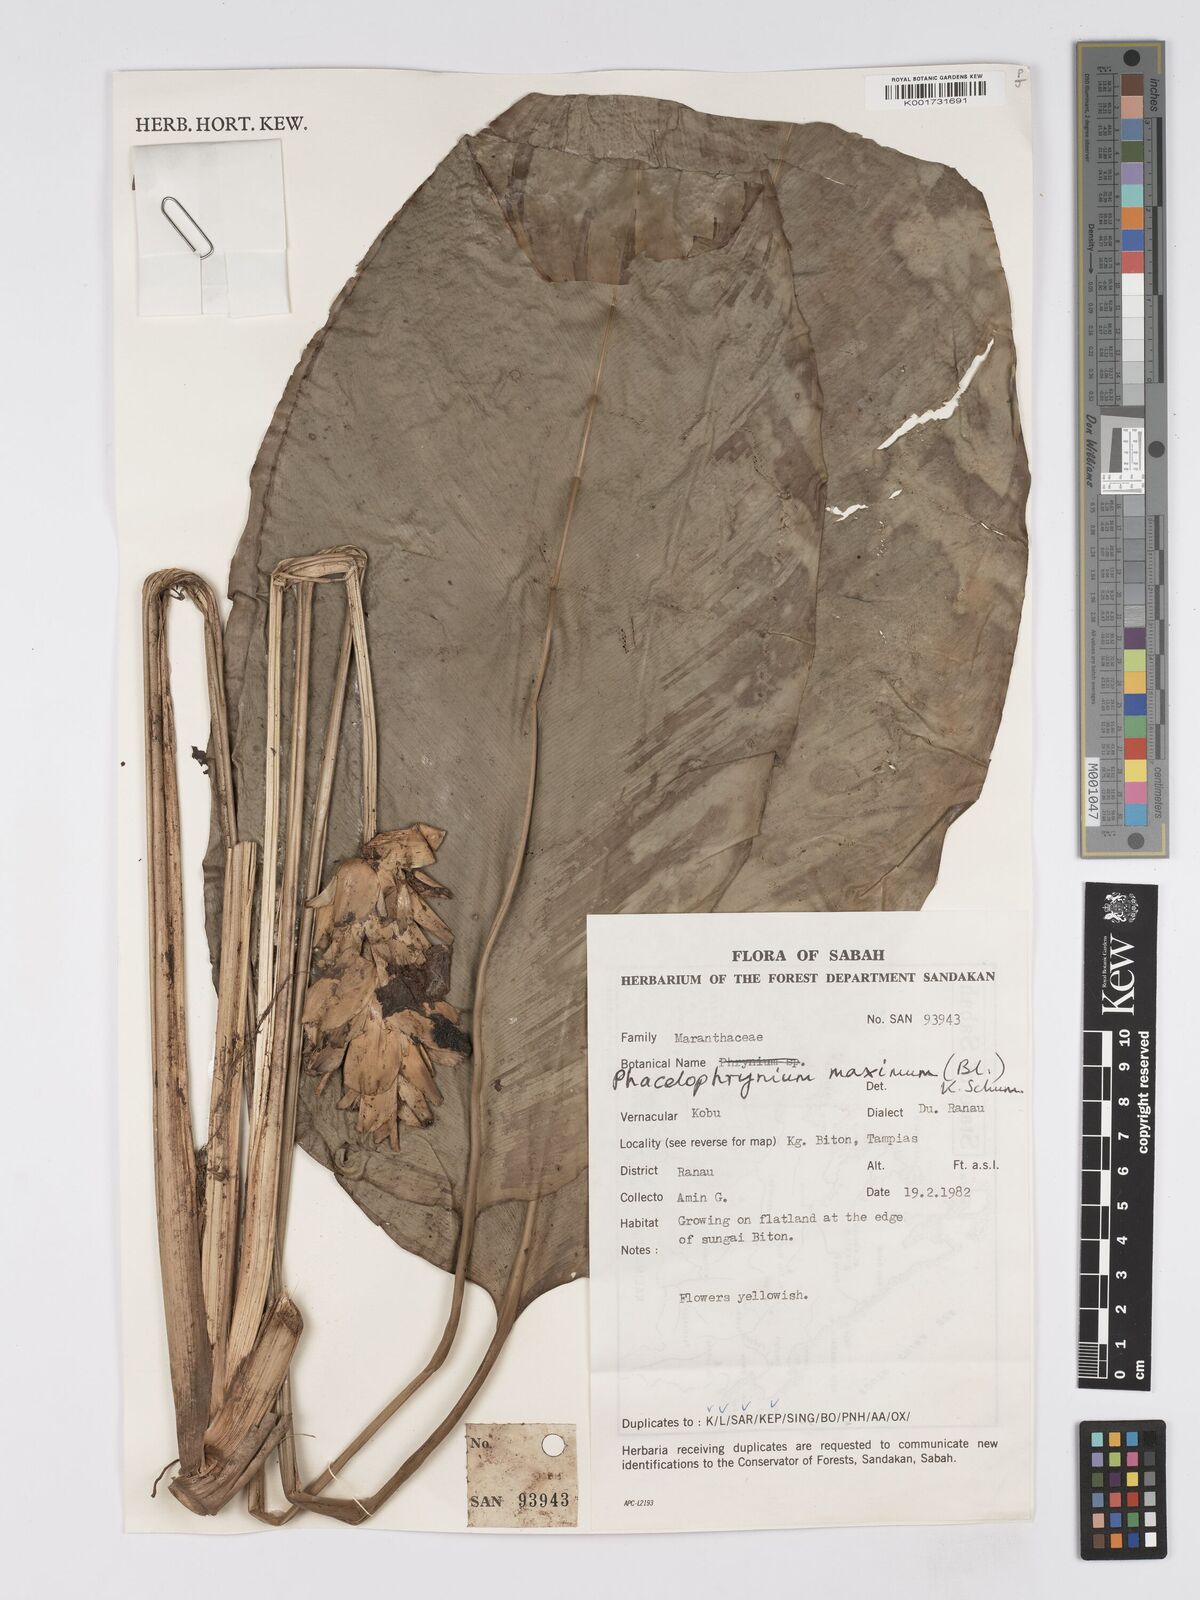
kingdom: Plantae
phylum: Tracheophyta
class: Liliopsida
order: Zingiberales
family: Marantaceae
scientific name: Marantaceae
